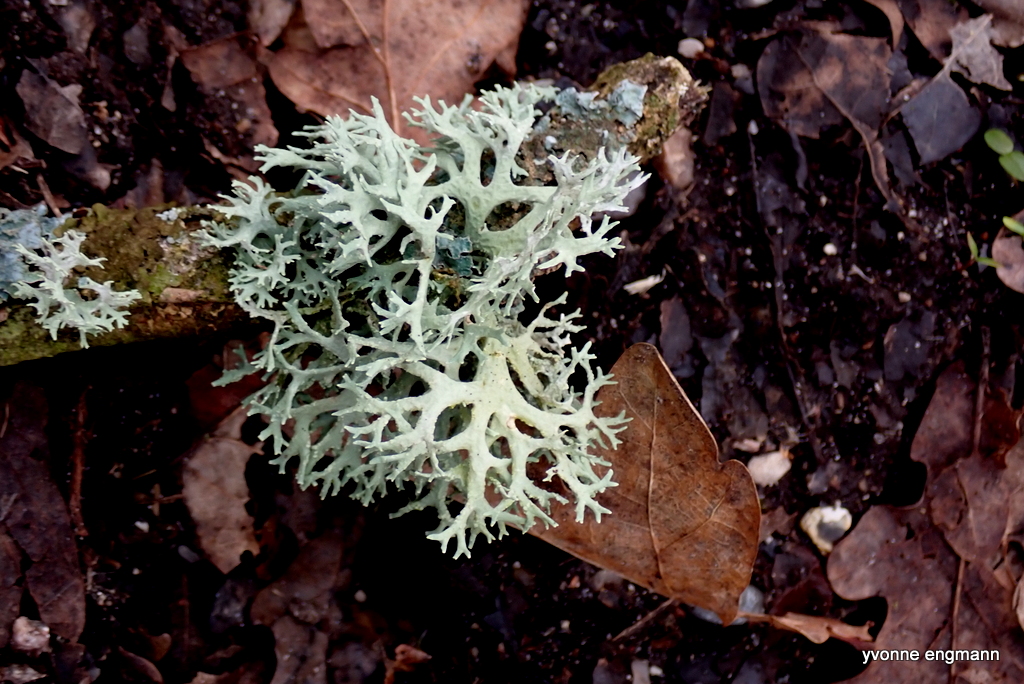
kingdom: Fungi
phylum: Ascomycota
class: Lecanoromycetes
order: Lecanorales
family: Parmeliaceae
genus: Evernia
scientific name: Evernia prunastri
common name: almindelig slåenlav
